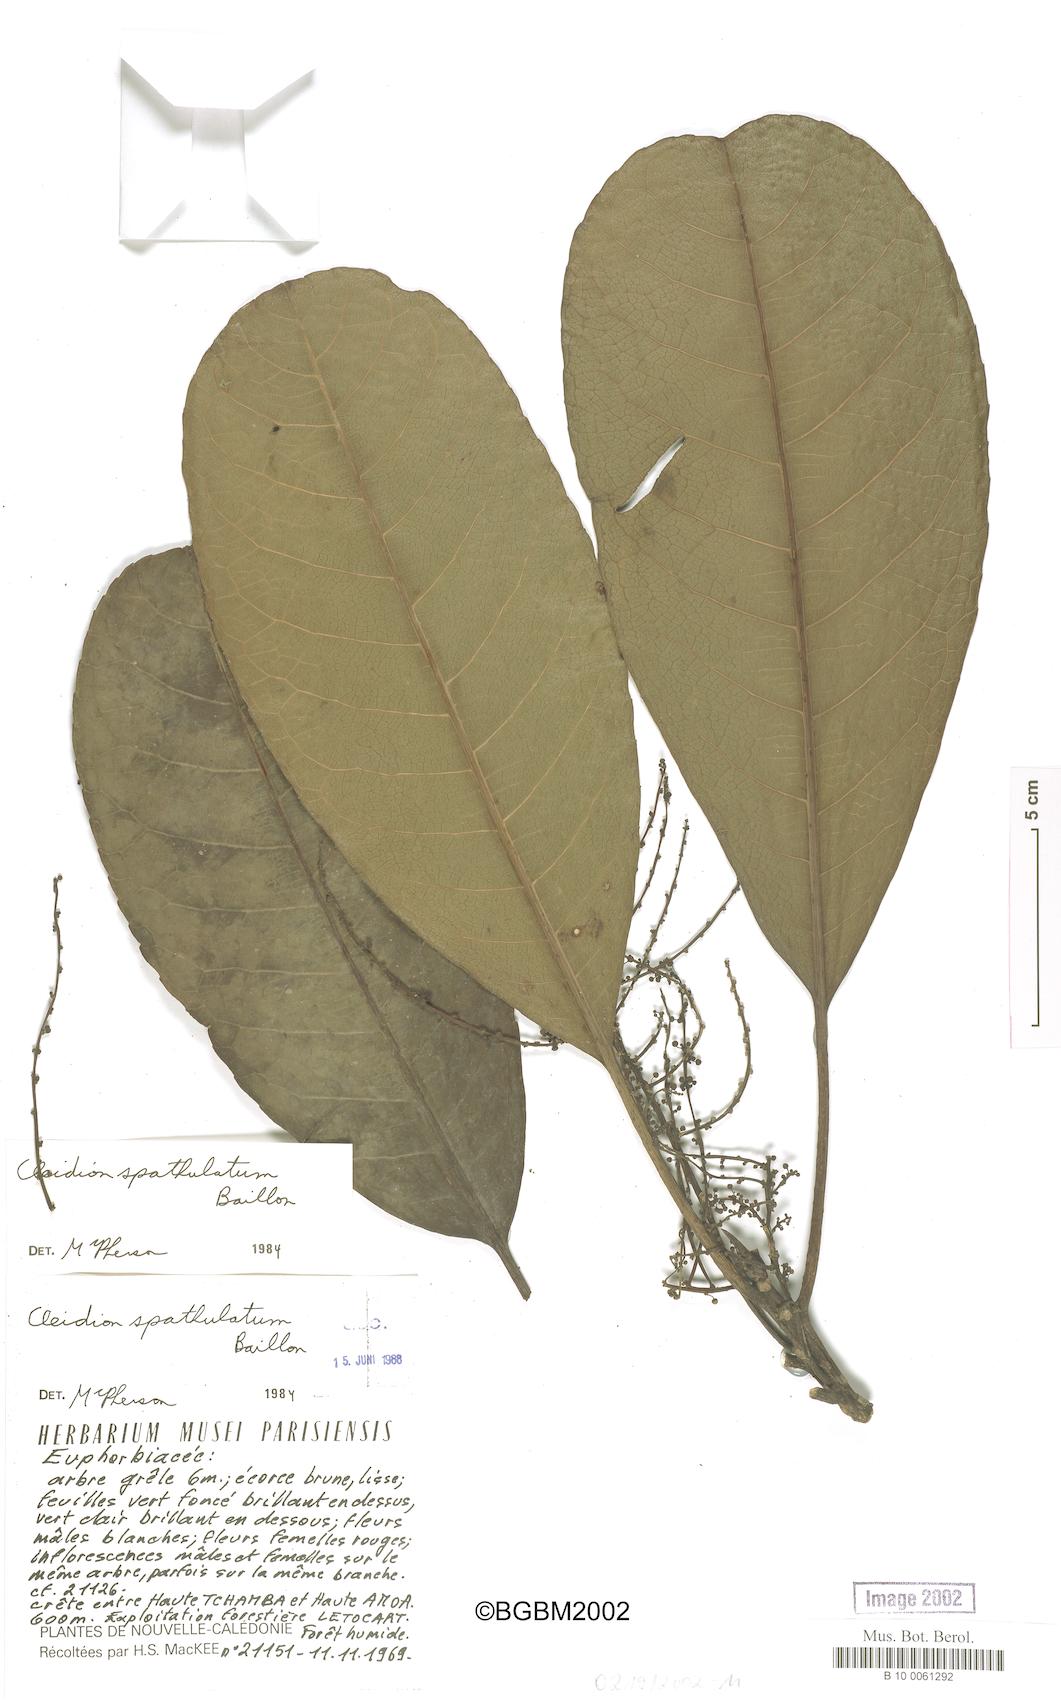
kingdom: Plantae
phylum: Tracheophyta
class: Magnoliopsida
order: Malpighiales
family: Euphorbiaceae
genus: Cleidion
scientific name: Cleidion spathulatum
